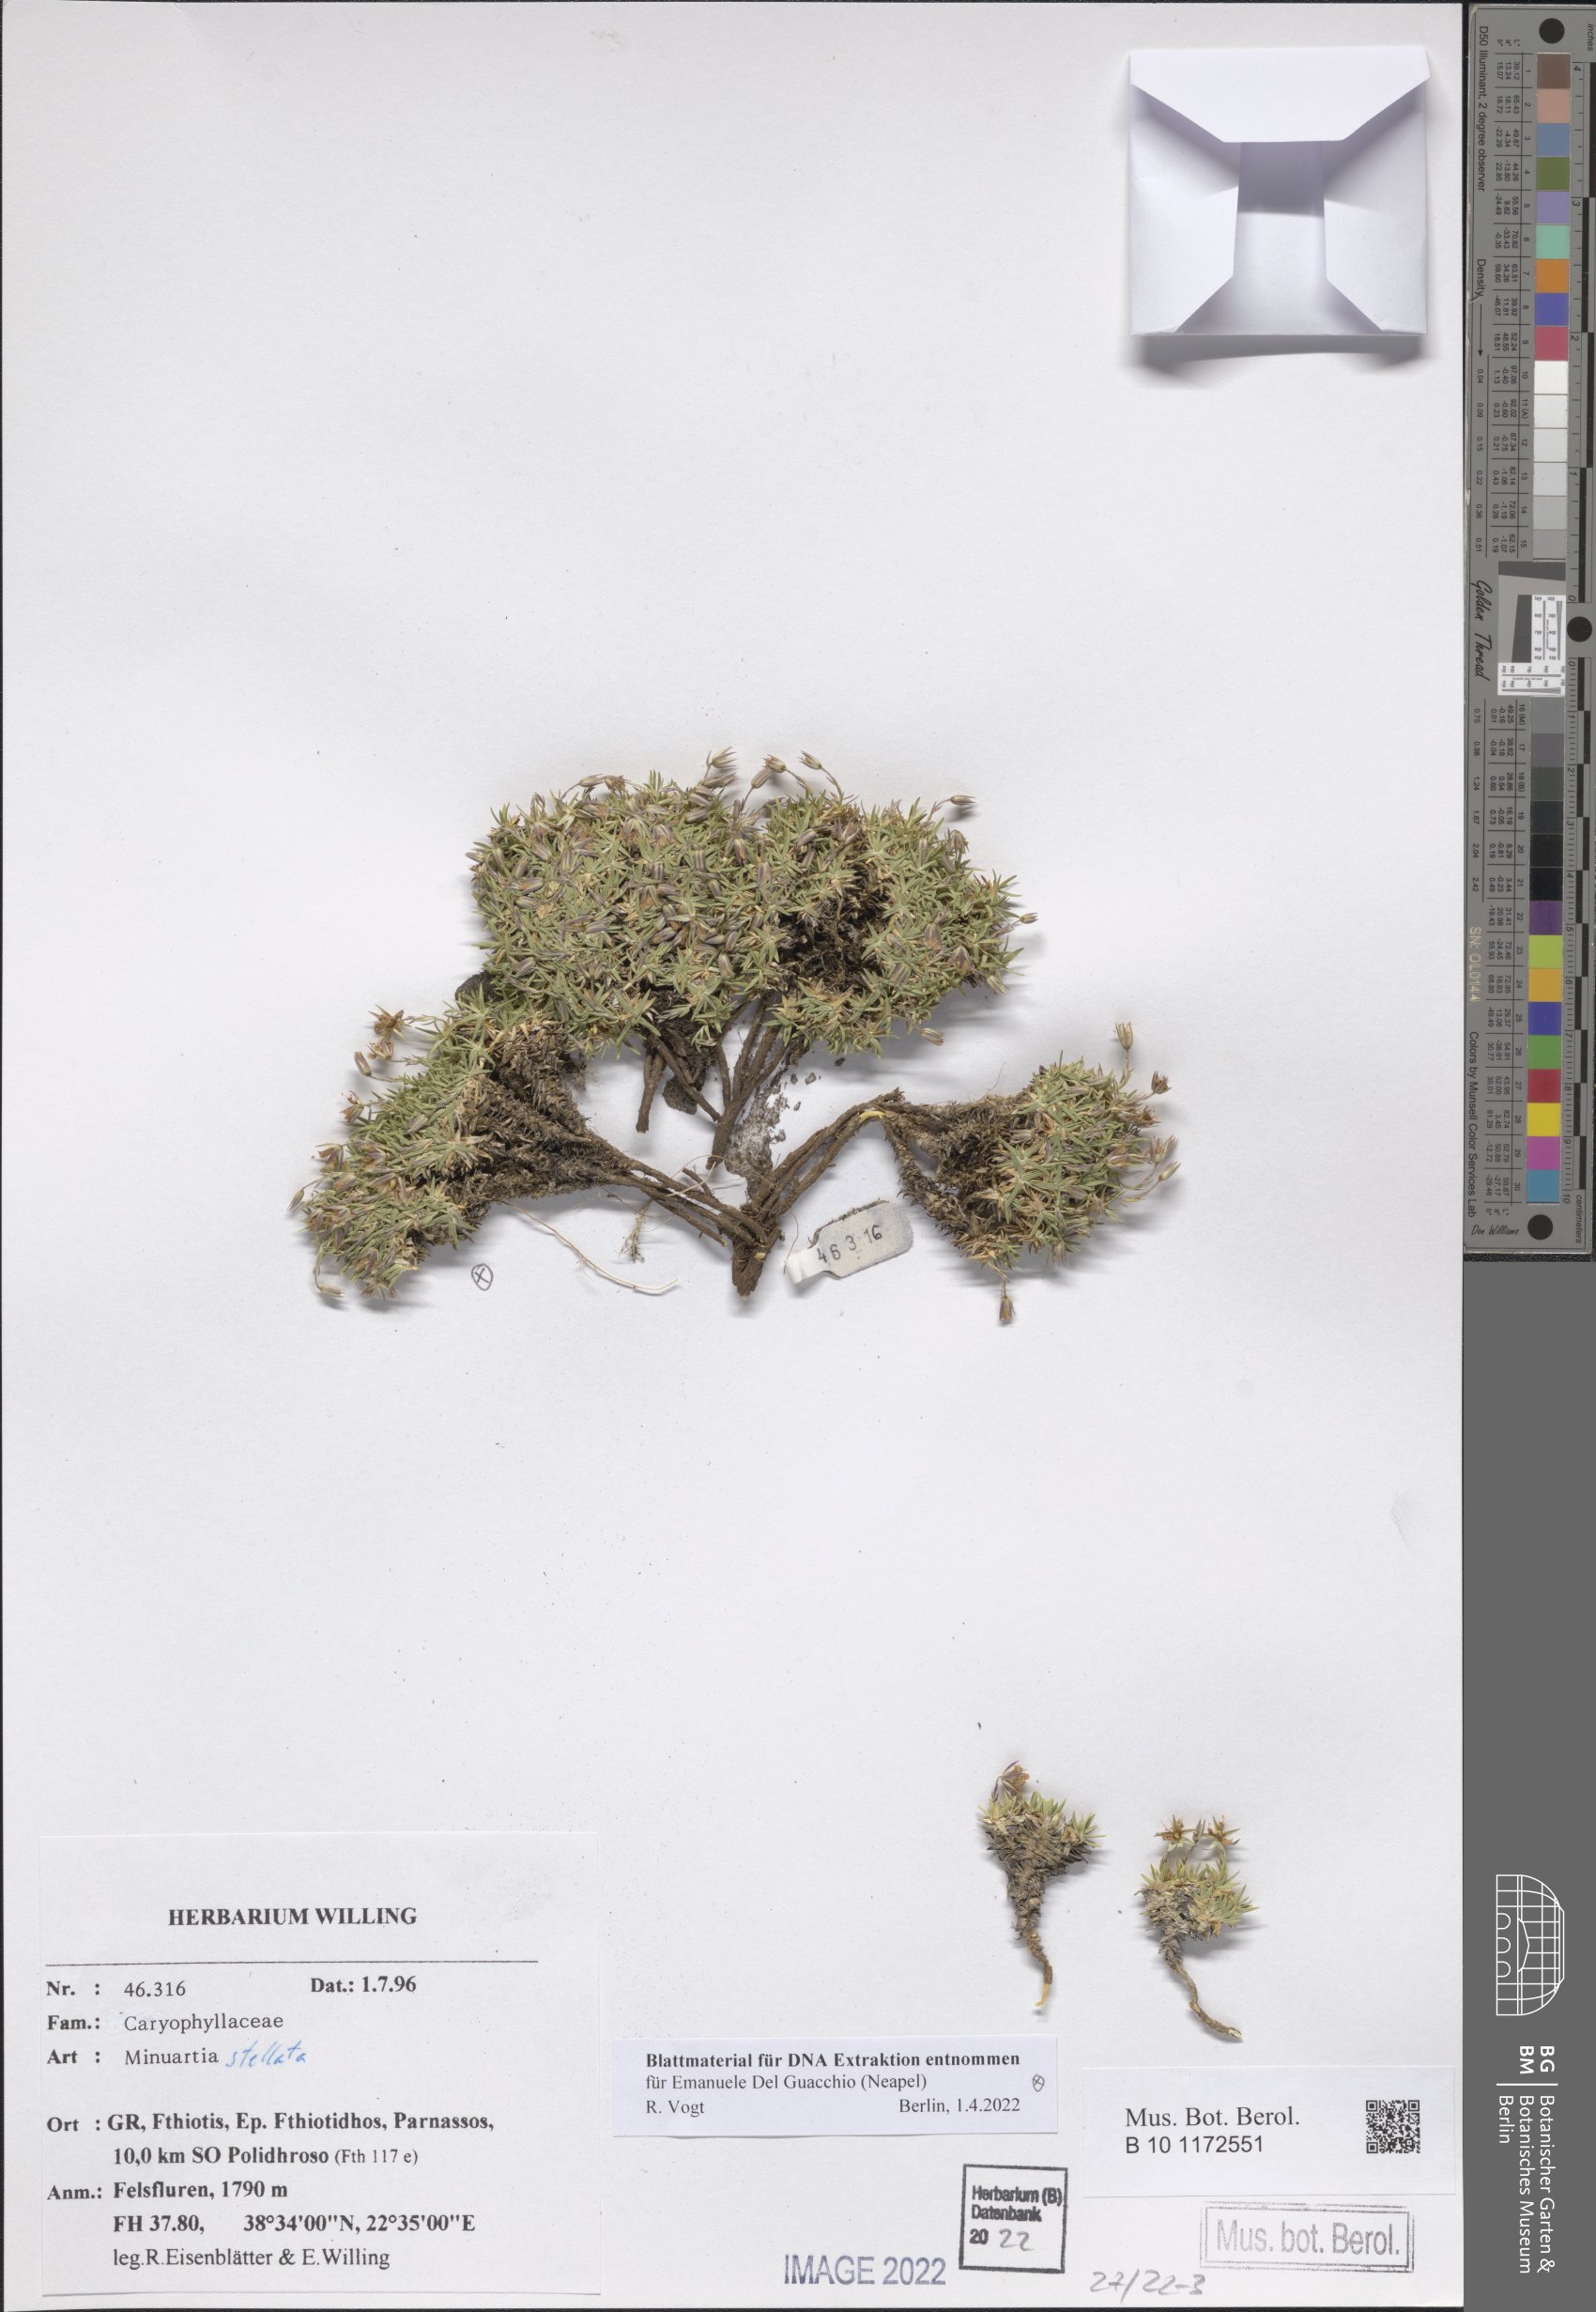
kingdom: Plantae
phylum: Tracheophyta
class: Magnoliopsida
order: Caryophyllales
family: Caryophyllaceae
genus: Mcneillia
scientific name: Mcneillia stellata
